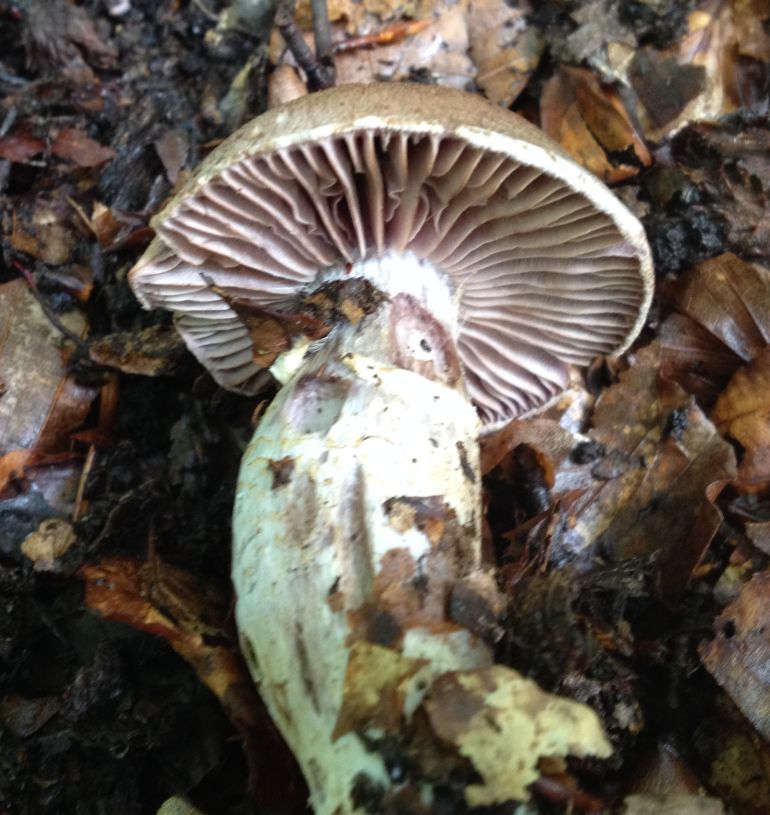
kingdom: Fungi
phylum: Basidiomycota
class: Agaricomycetes
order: Agaricales
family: Cortinariaceae
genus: Cortinarius
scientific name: Cortinarius torvus
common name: champignonagtig slørhat
